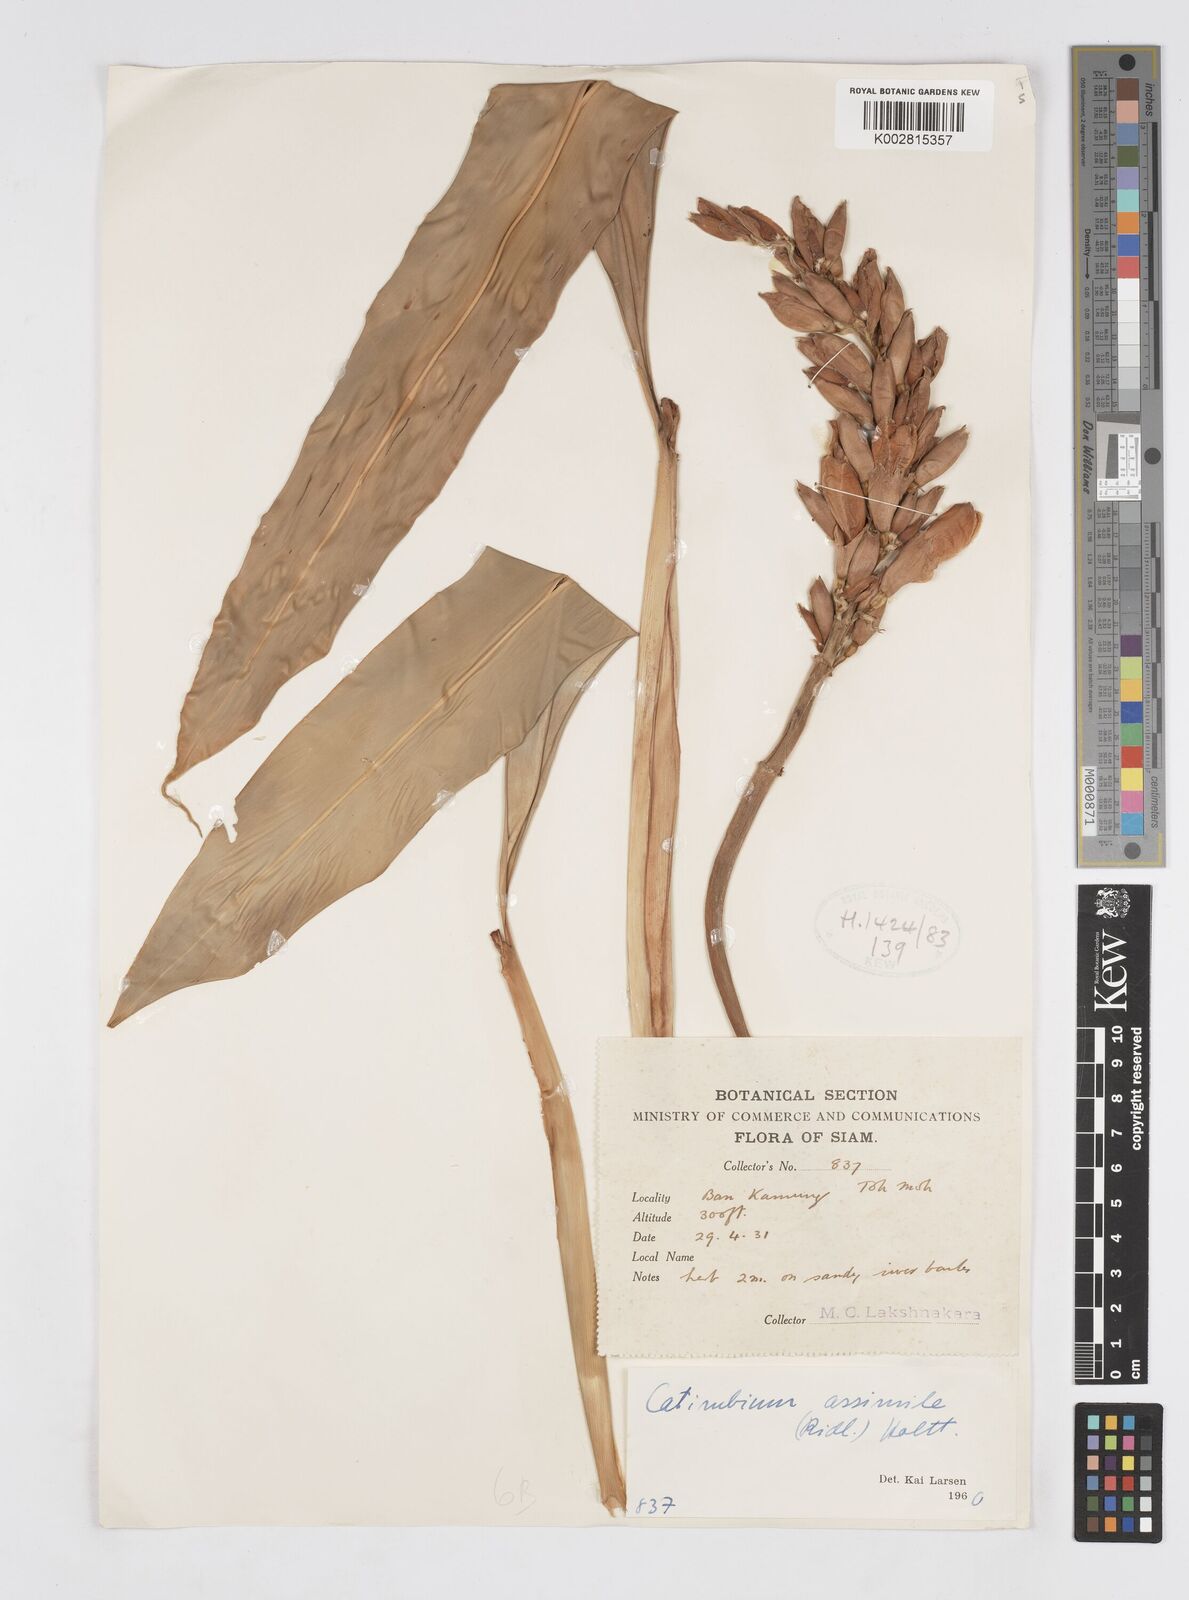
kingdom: Plantae
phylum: Tracheophyta
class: Liliopsida
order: Zingiberales
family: Zingiberaceae
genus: Alpinia
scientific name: Alpinia assimilis
